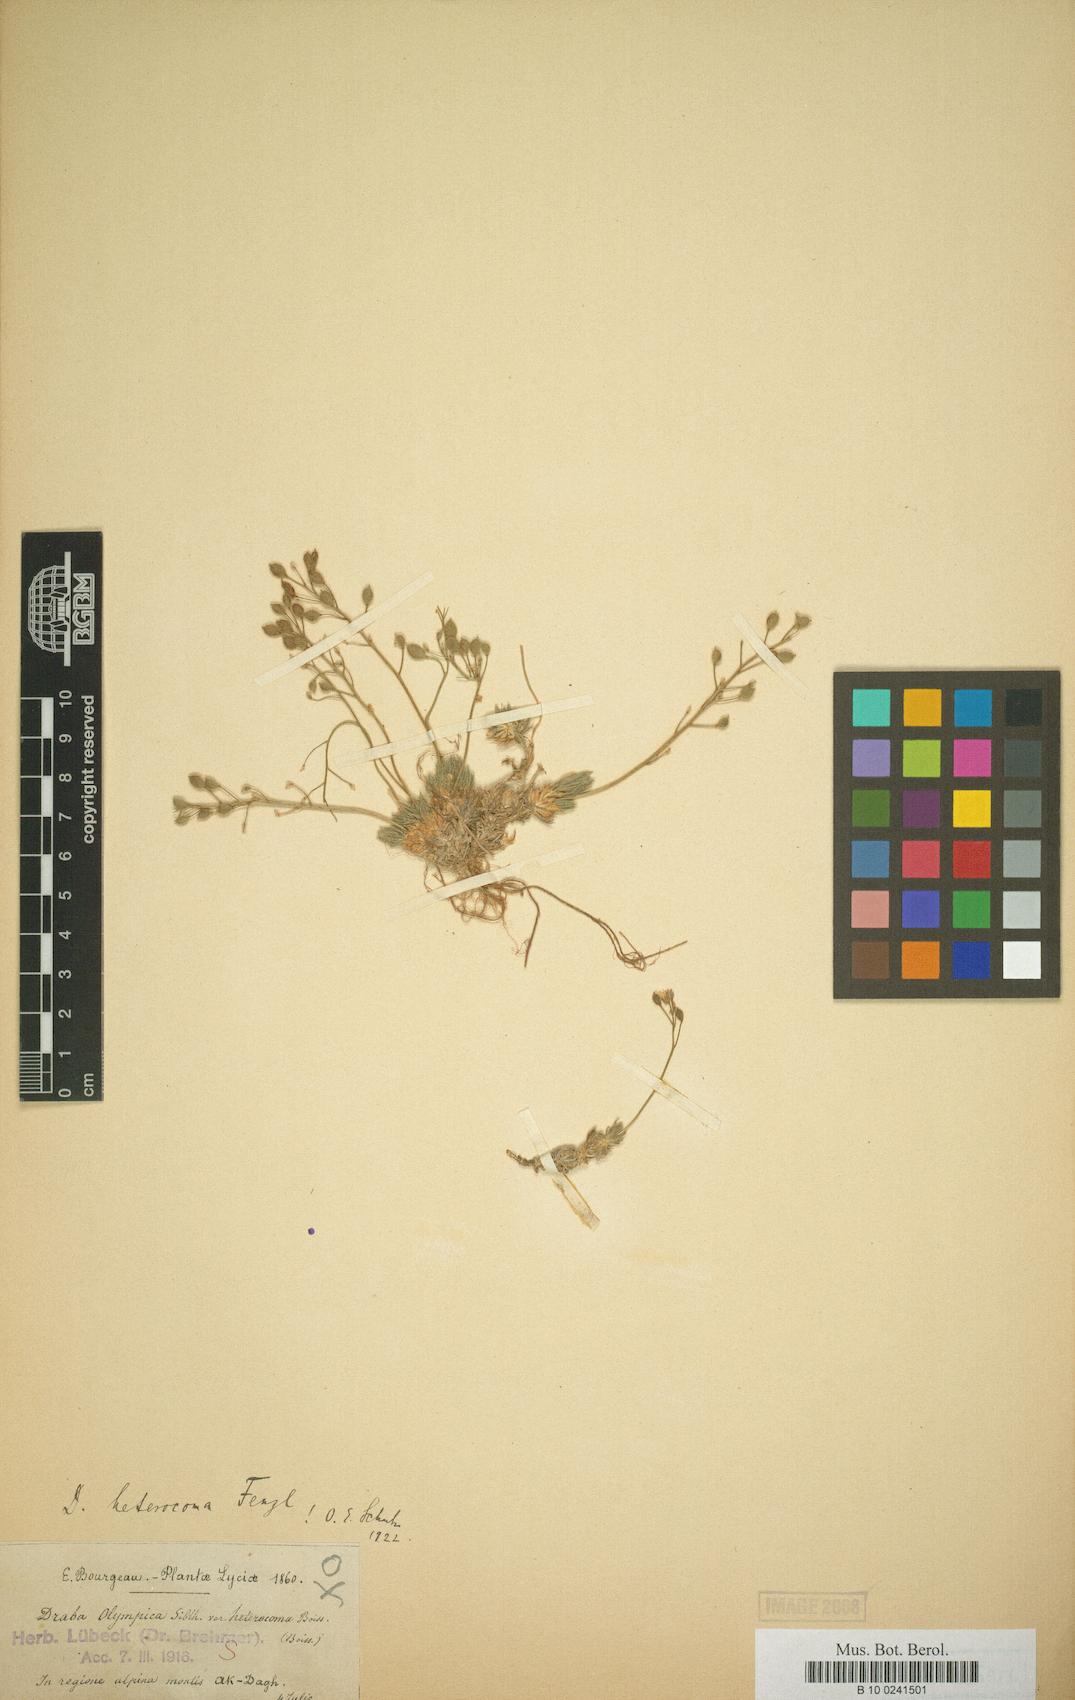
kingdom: Plantae
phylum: Tracheophyta
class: Magnoliopsida
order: Brassicales
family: Brassicaceae
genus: Draba
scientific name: Draba heterocoma
